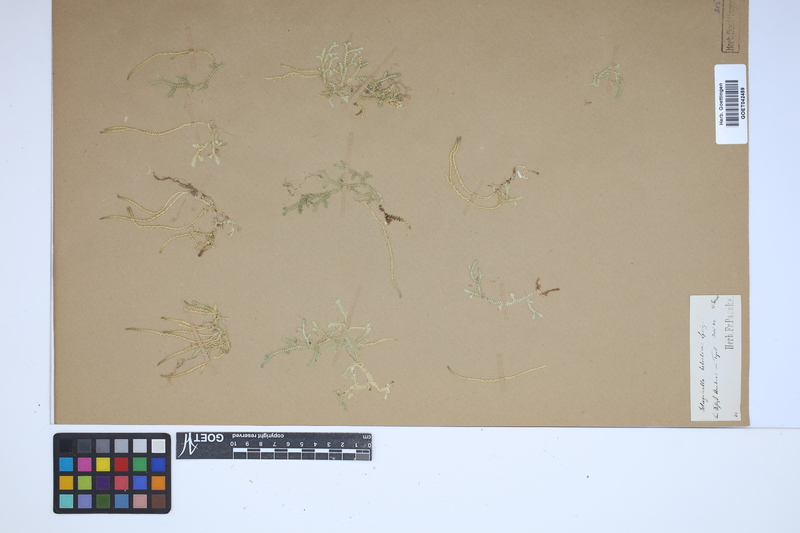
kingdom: Plantae
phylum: Tracheophyta
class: Lycopodiopsida
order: Selaginellales
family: Selaginellaceae
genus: Selaginella
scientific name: Selaginella helvetica
